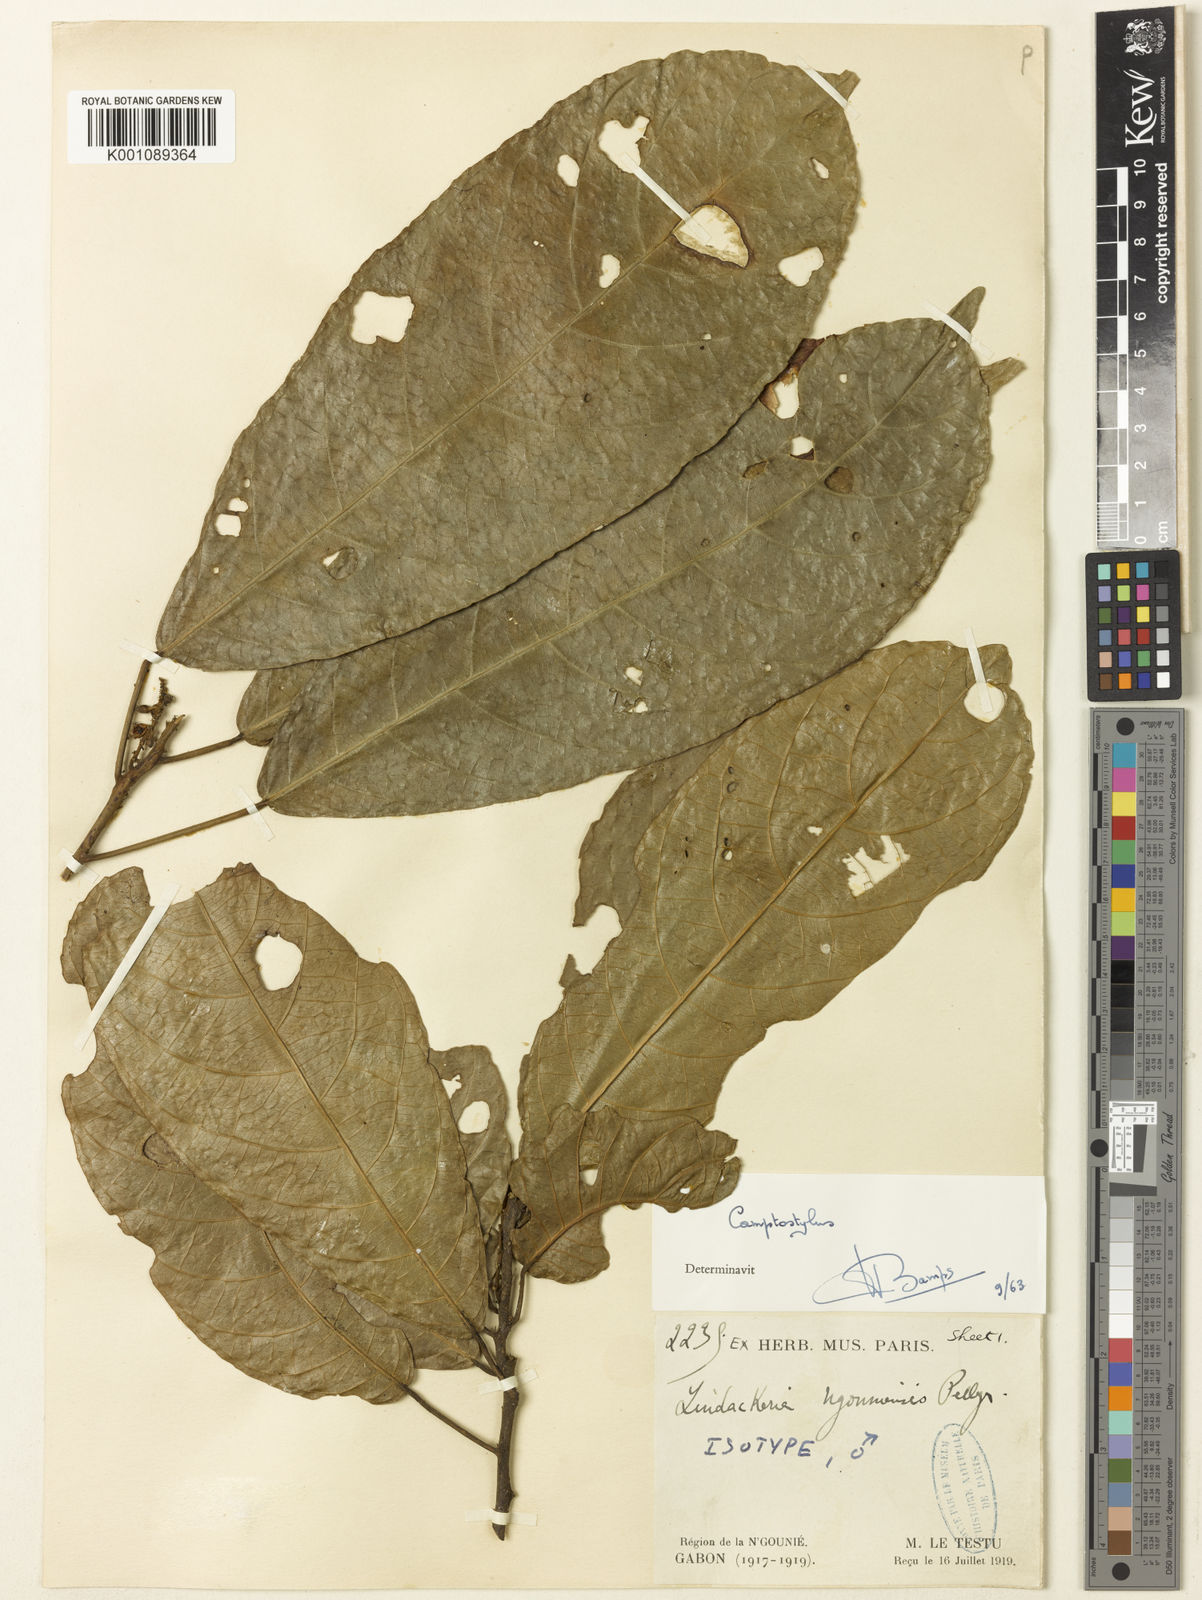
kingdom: Plantae
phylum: Tracheophyta
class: Magnoliopsida
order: Malpighiales
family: Achariaceae
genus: Lindackeria
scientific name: Lindackeria ngounyensis
